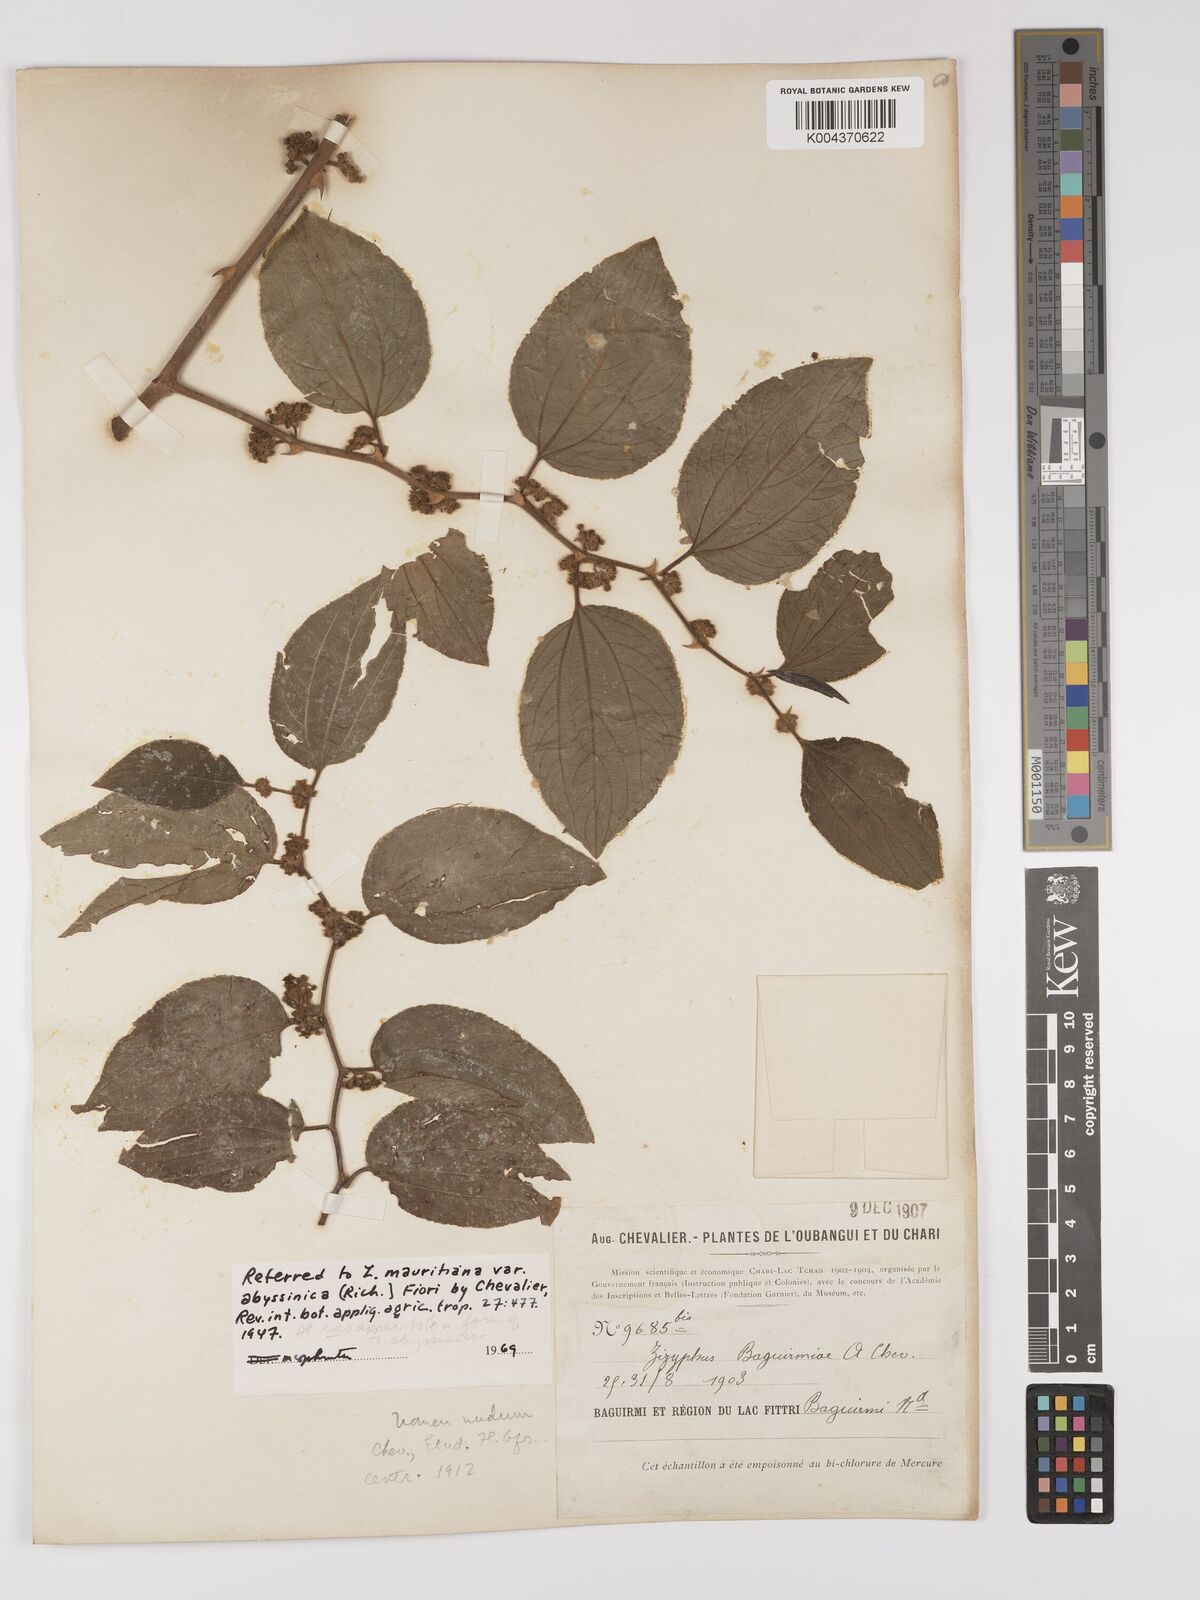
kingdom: Plantae
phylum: Tracheophyta
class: Magnoliopsida
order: Rosales
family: Rhamnaceae
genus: Ziziphus
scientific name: Ziziphus mucronata
